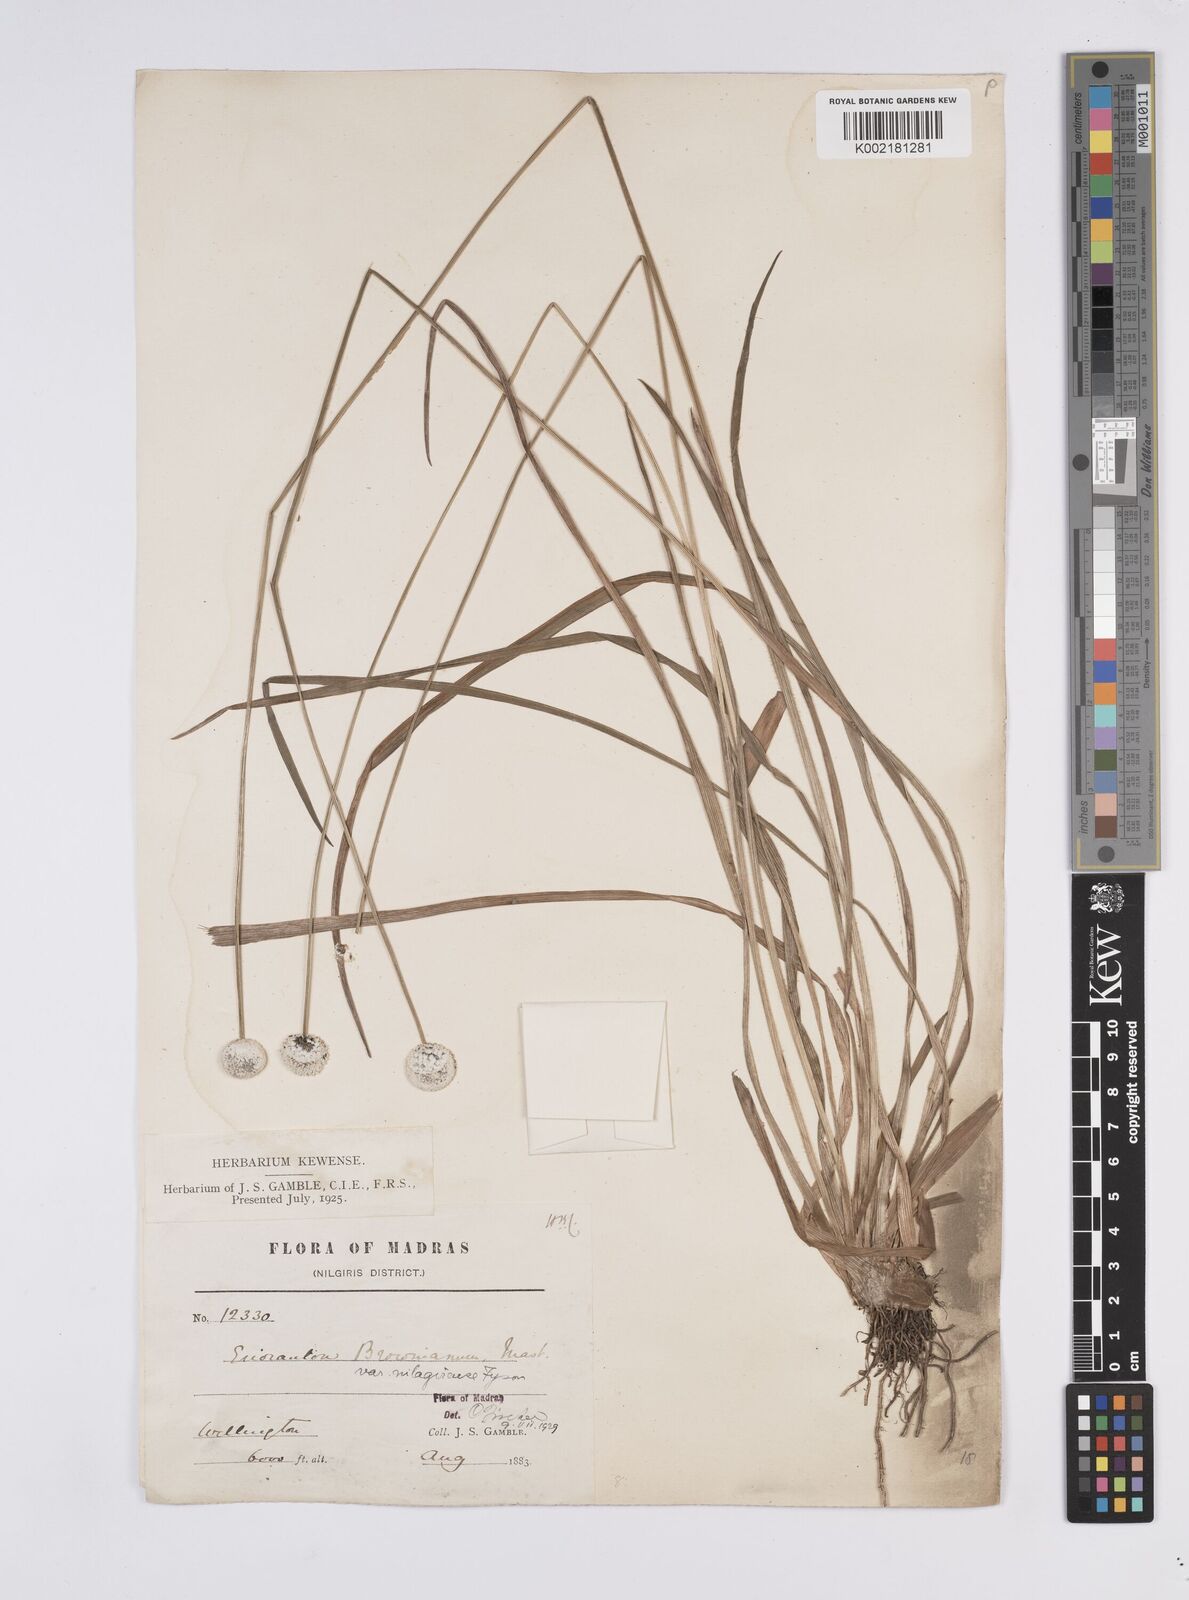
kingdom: Plantae
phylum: Tracheophyta
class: Liliopsida
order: Poales
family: Eriocaulaceae
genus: Eriocaulon
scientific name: Eriocaulon brownianum
